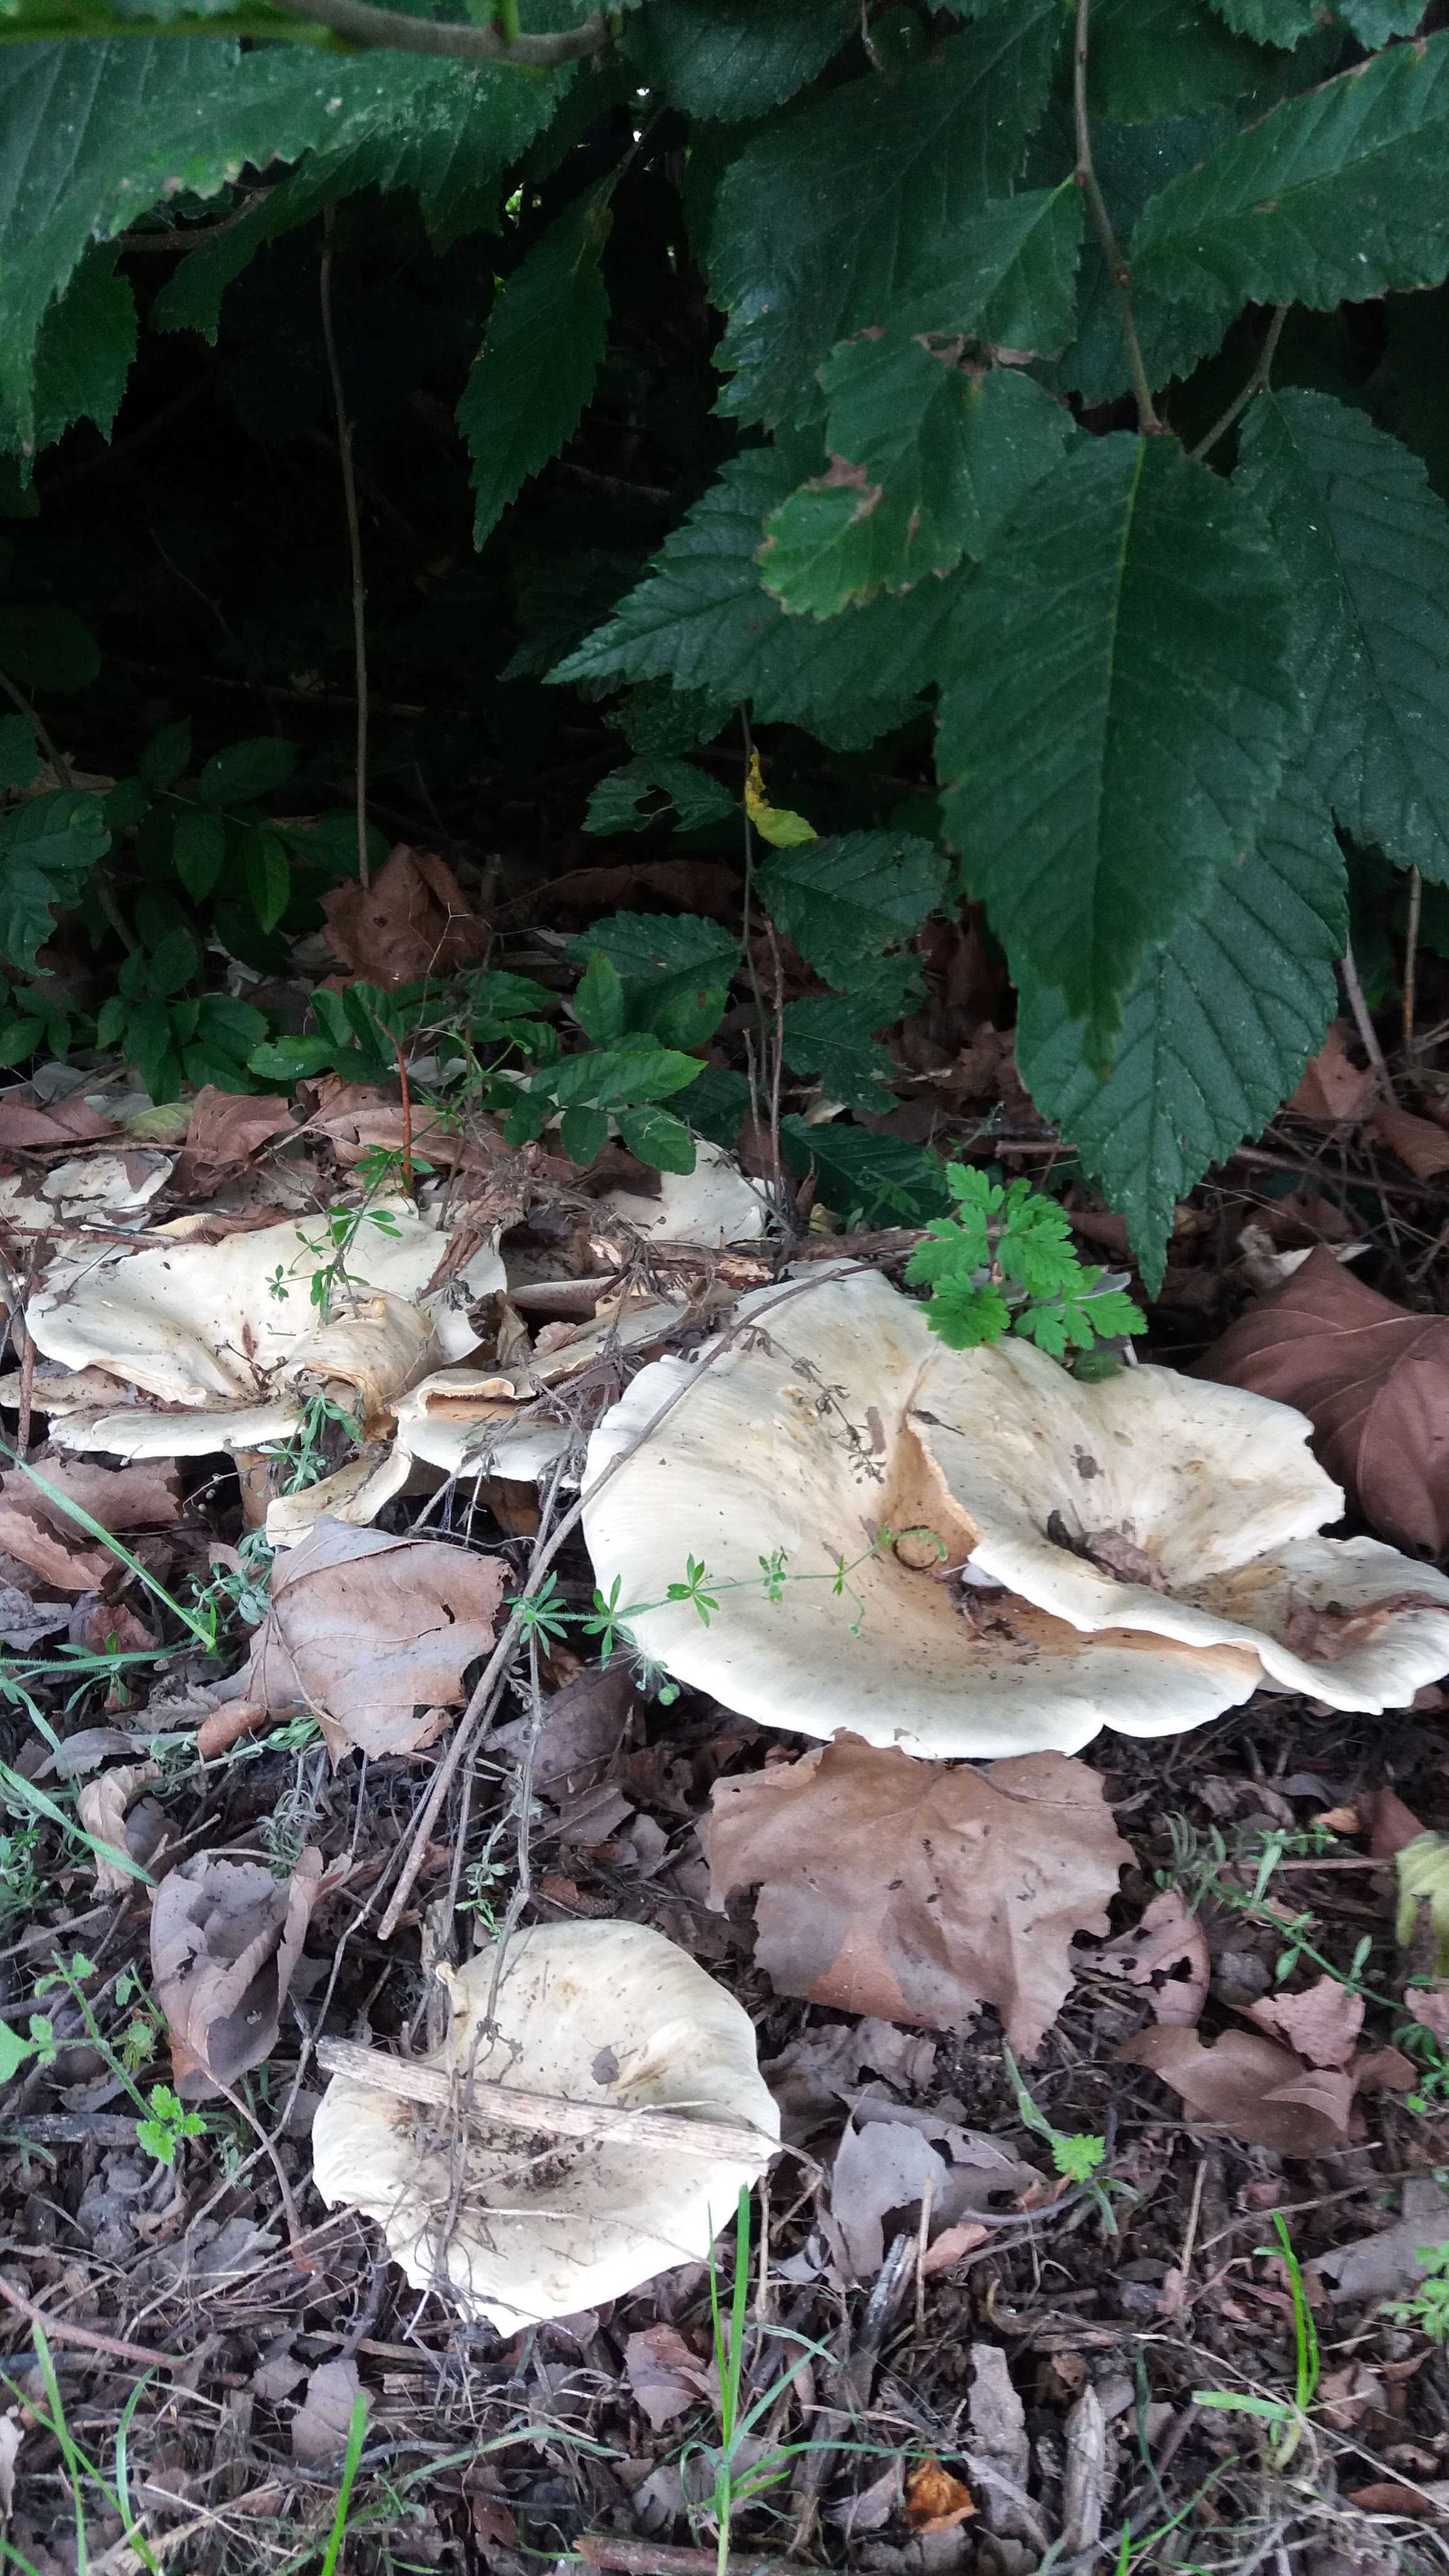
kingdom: Fungi
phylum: Basidiomycota
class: Agaricomycetes
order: Agaricales
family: Tricholomataceae
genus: Aspropaxillus
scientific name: Aspropaxillus giganteus
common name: kæmpe-tragtridderhat
